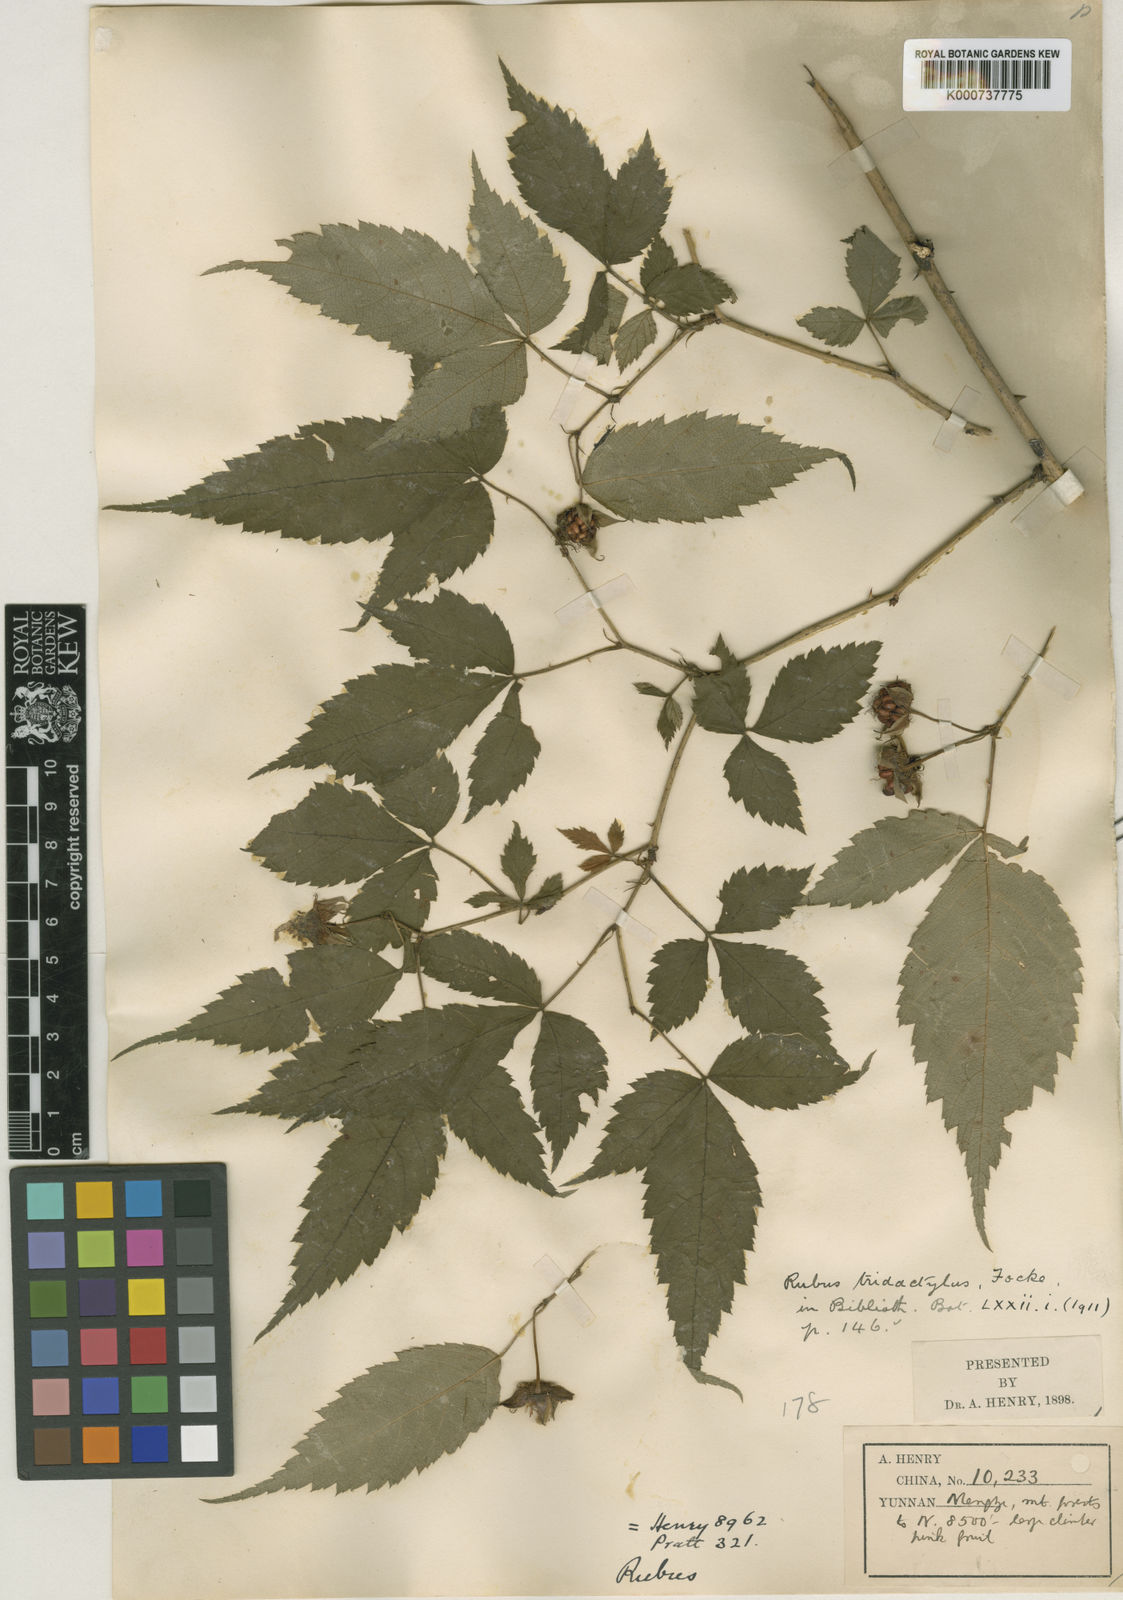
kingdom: Plantae
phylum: Tracheophyta
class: Magnoliopsida
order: Rosales
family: Rosaceae
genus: Rubus
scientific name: Rubus pentagonus
